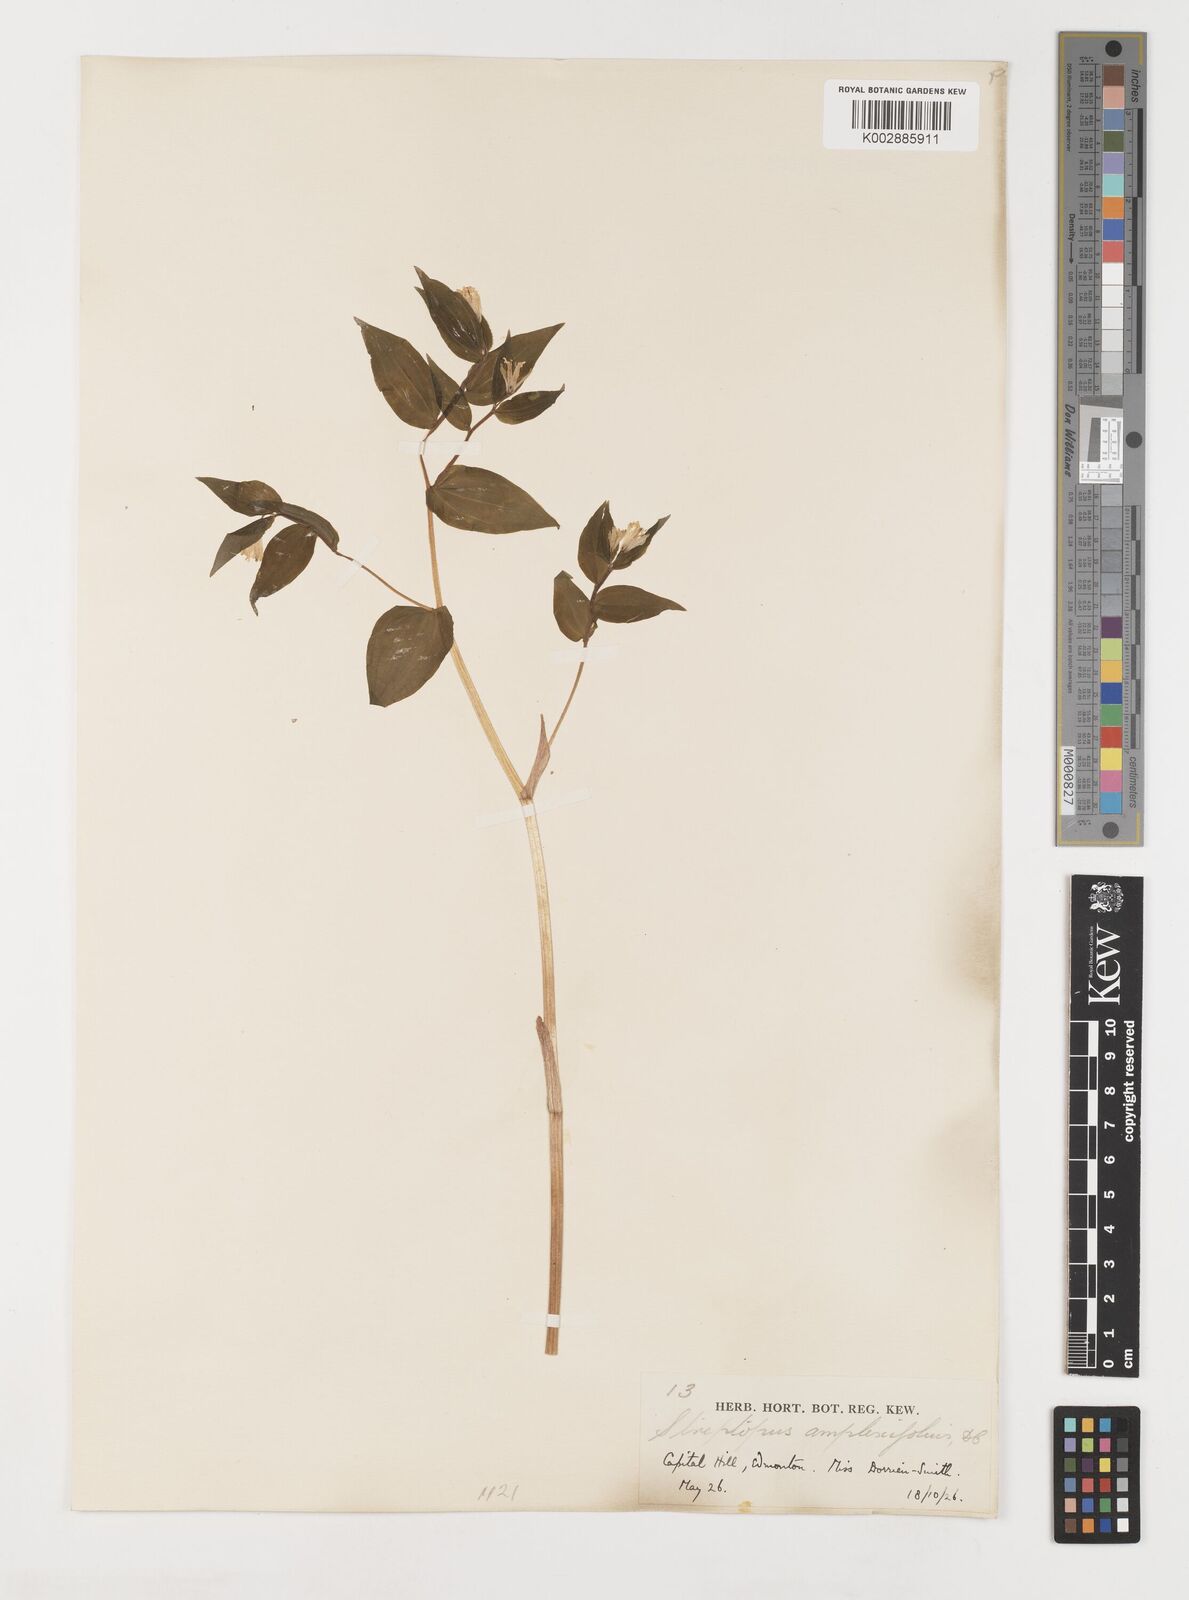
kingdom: Plantae
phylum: Tracheophyta
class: Liliopsida
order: Liliales
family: Liliaceae
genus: Streptopus
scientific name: Streptopus amplexifolius
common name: Clasp twisted stalk
